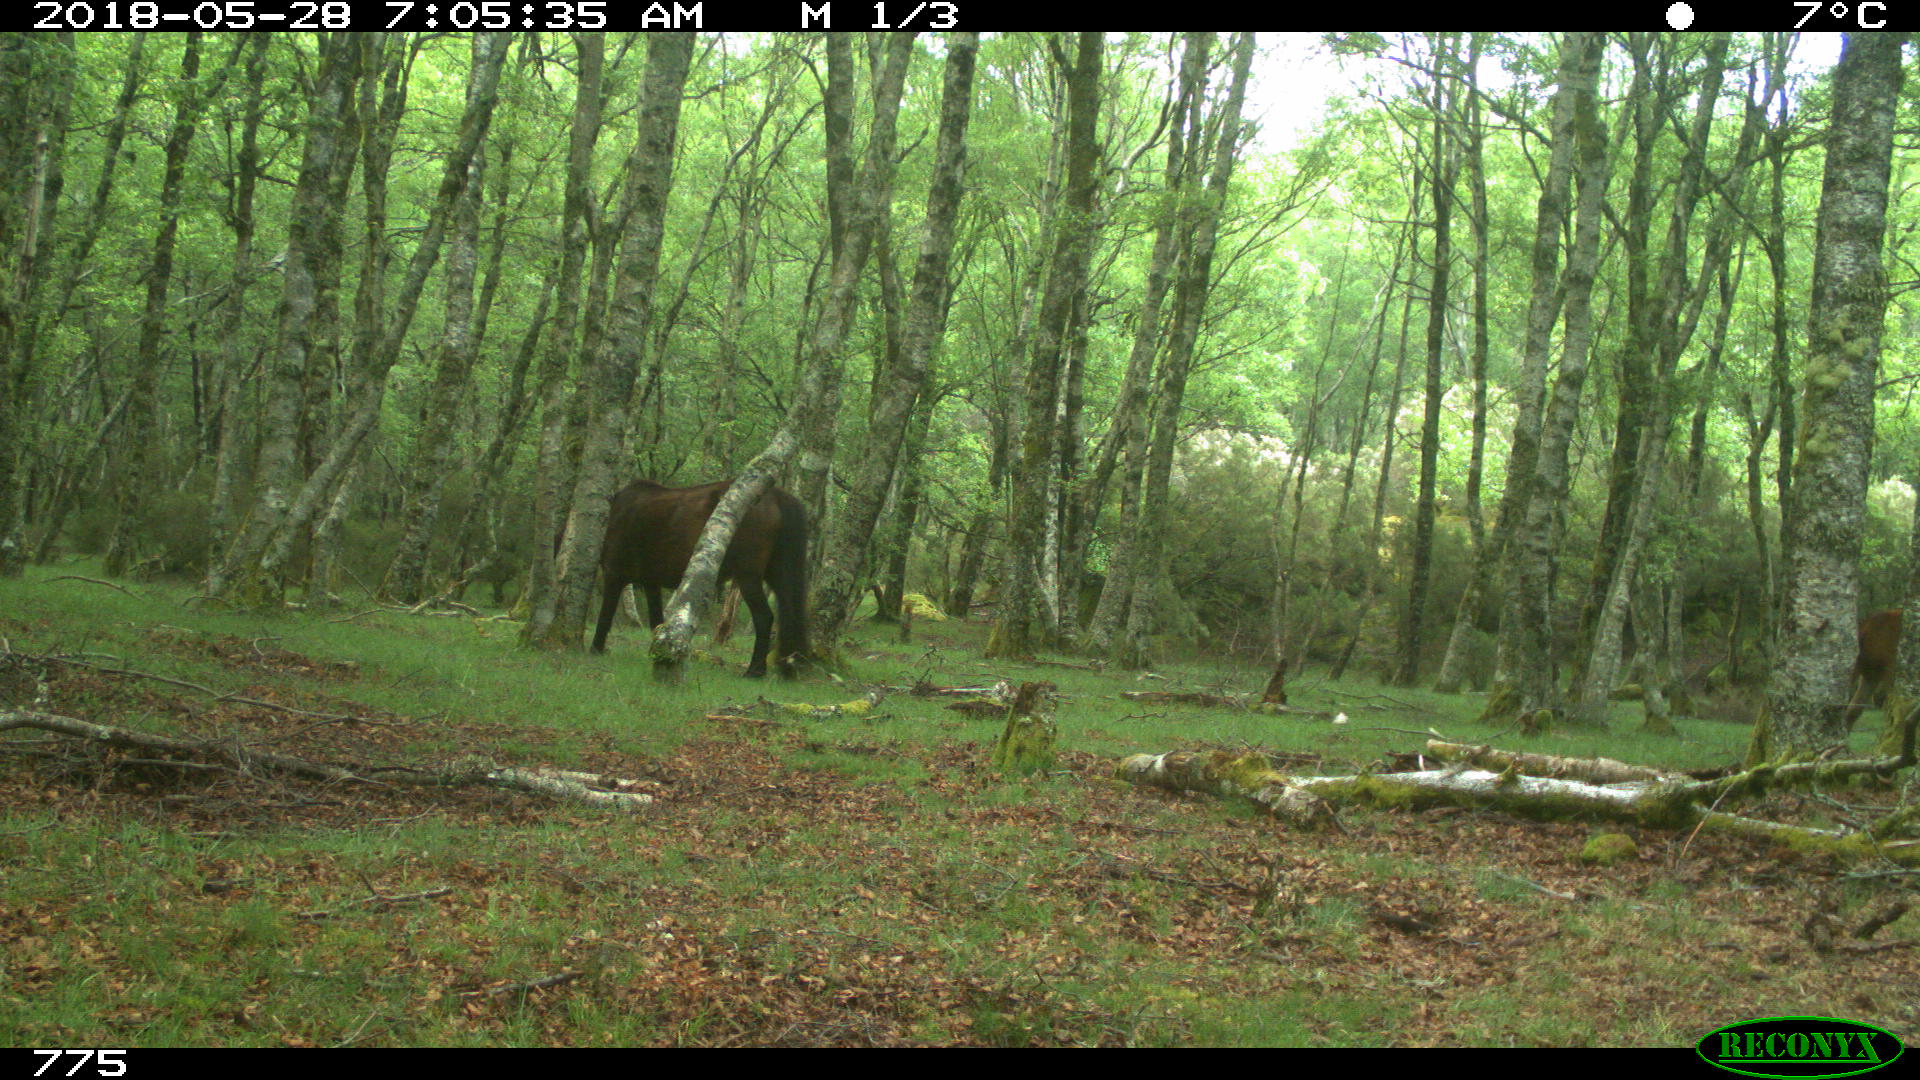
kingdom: Animalia
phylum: Chordata
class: Mammalia
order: Perissodactyla
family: Equidae
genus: Equus
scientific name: Equus caballus
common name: Horse
